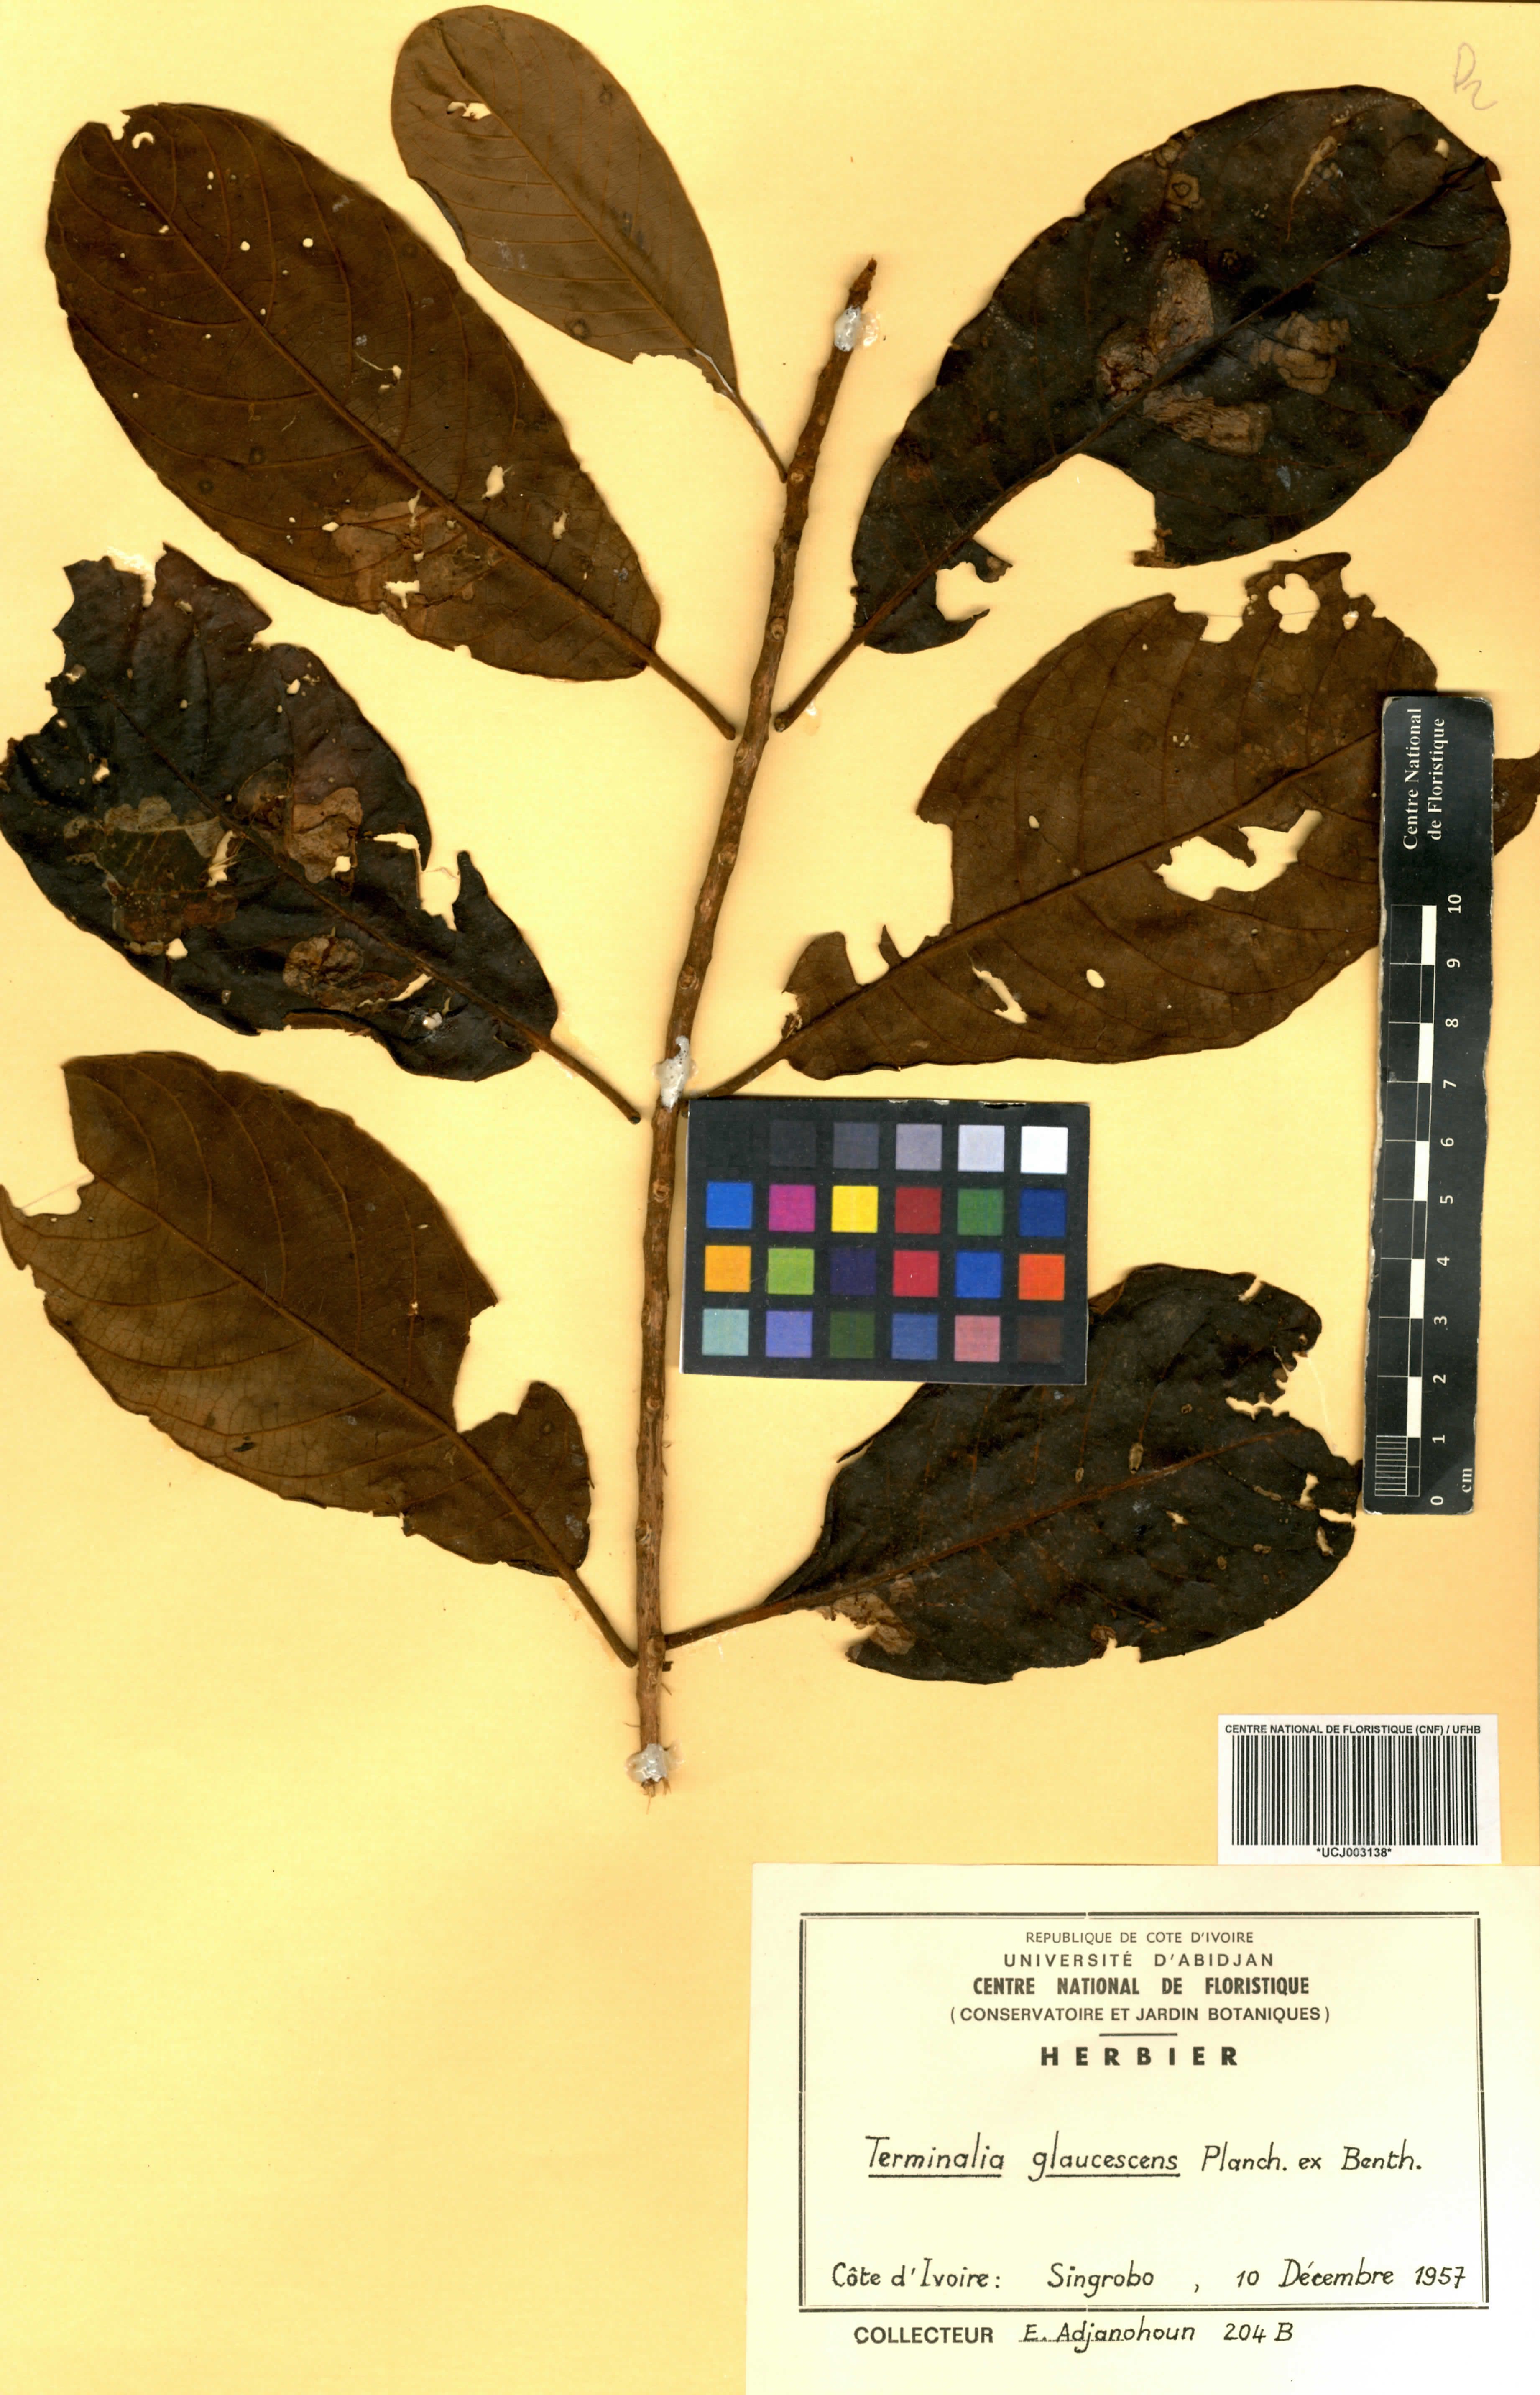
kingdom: Plantae
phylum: Tracheophyta
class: Magnoliopsida
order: Myrtales
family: Combretaceae
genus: Terminalia
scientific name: Terminalia schimperiana
